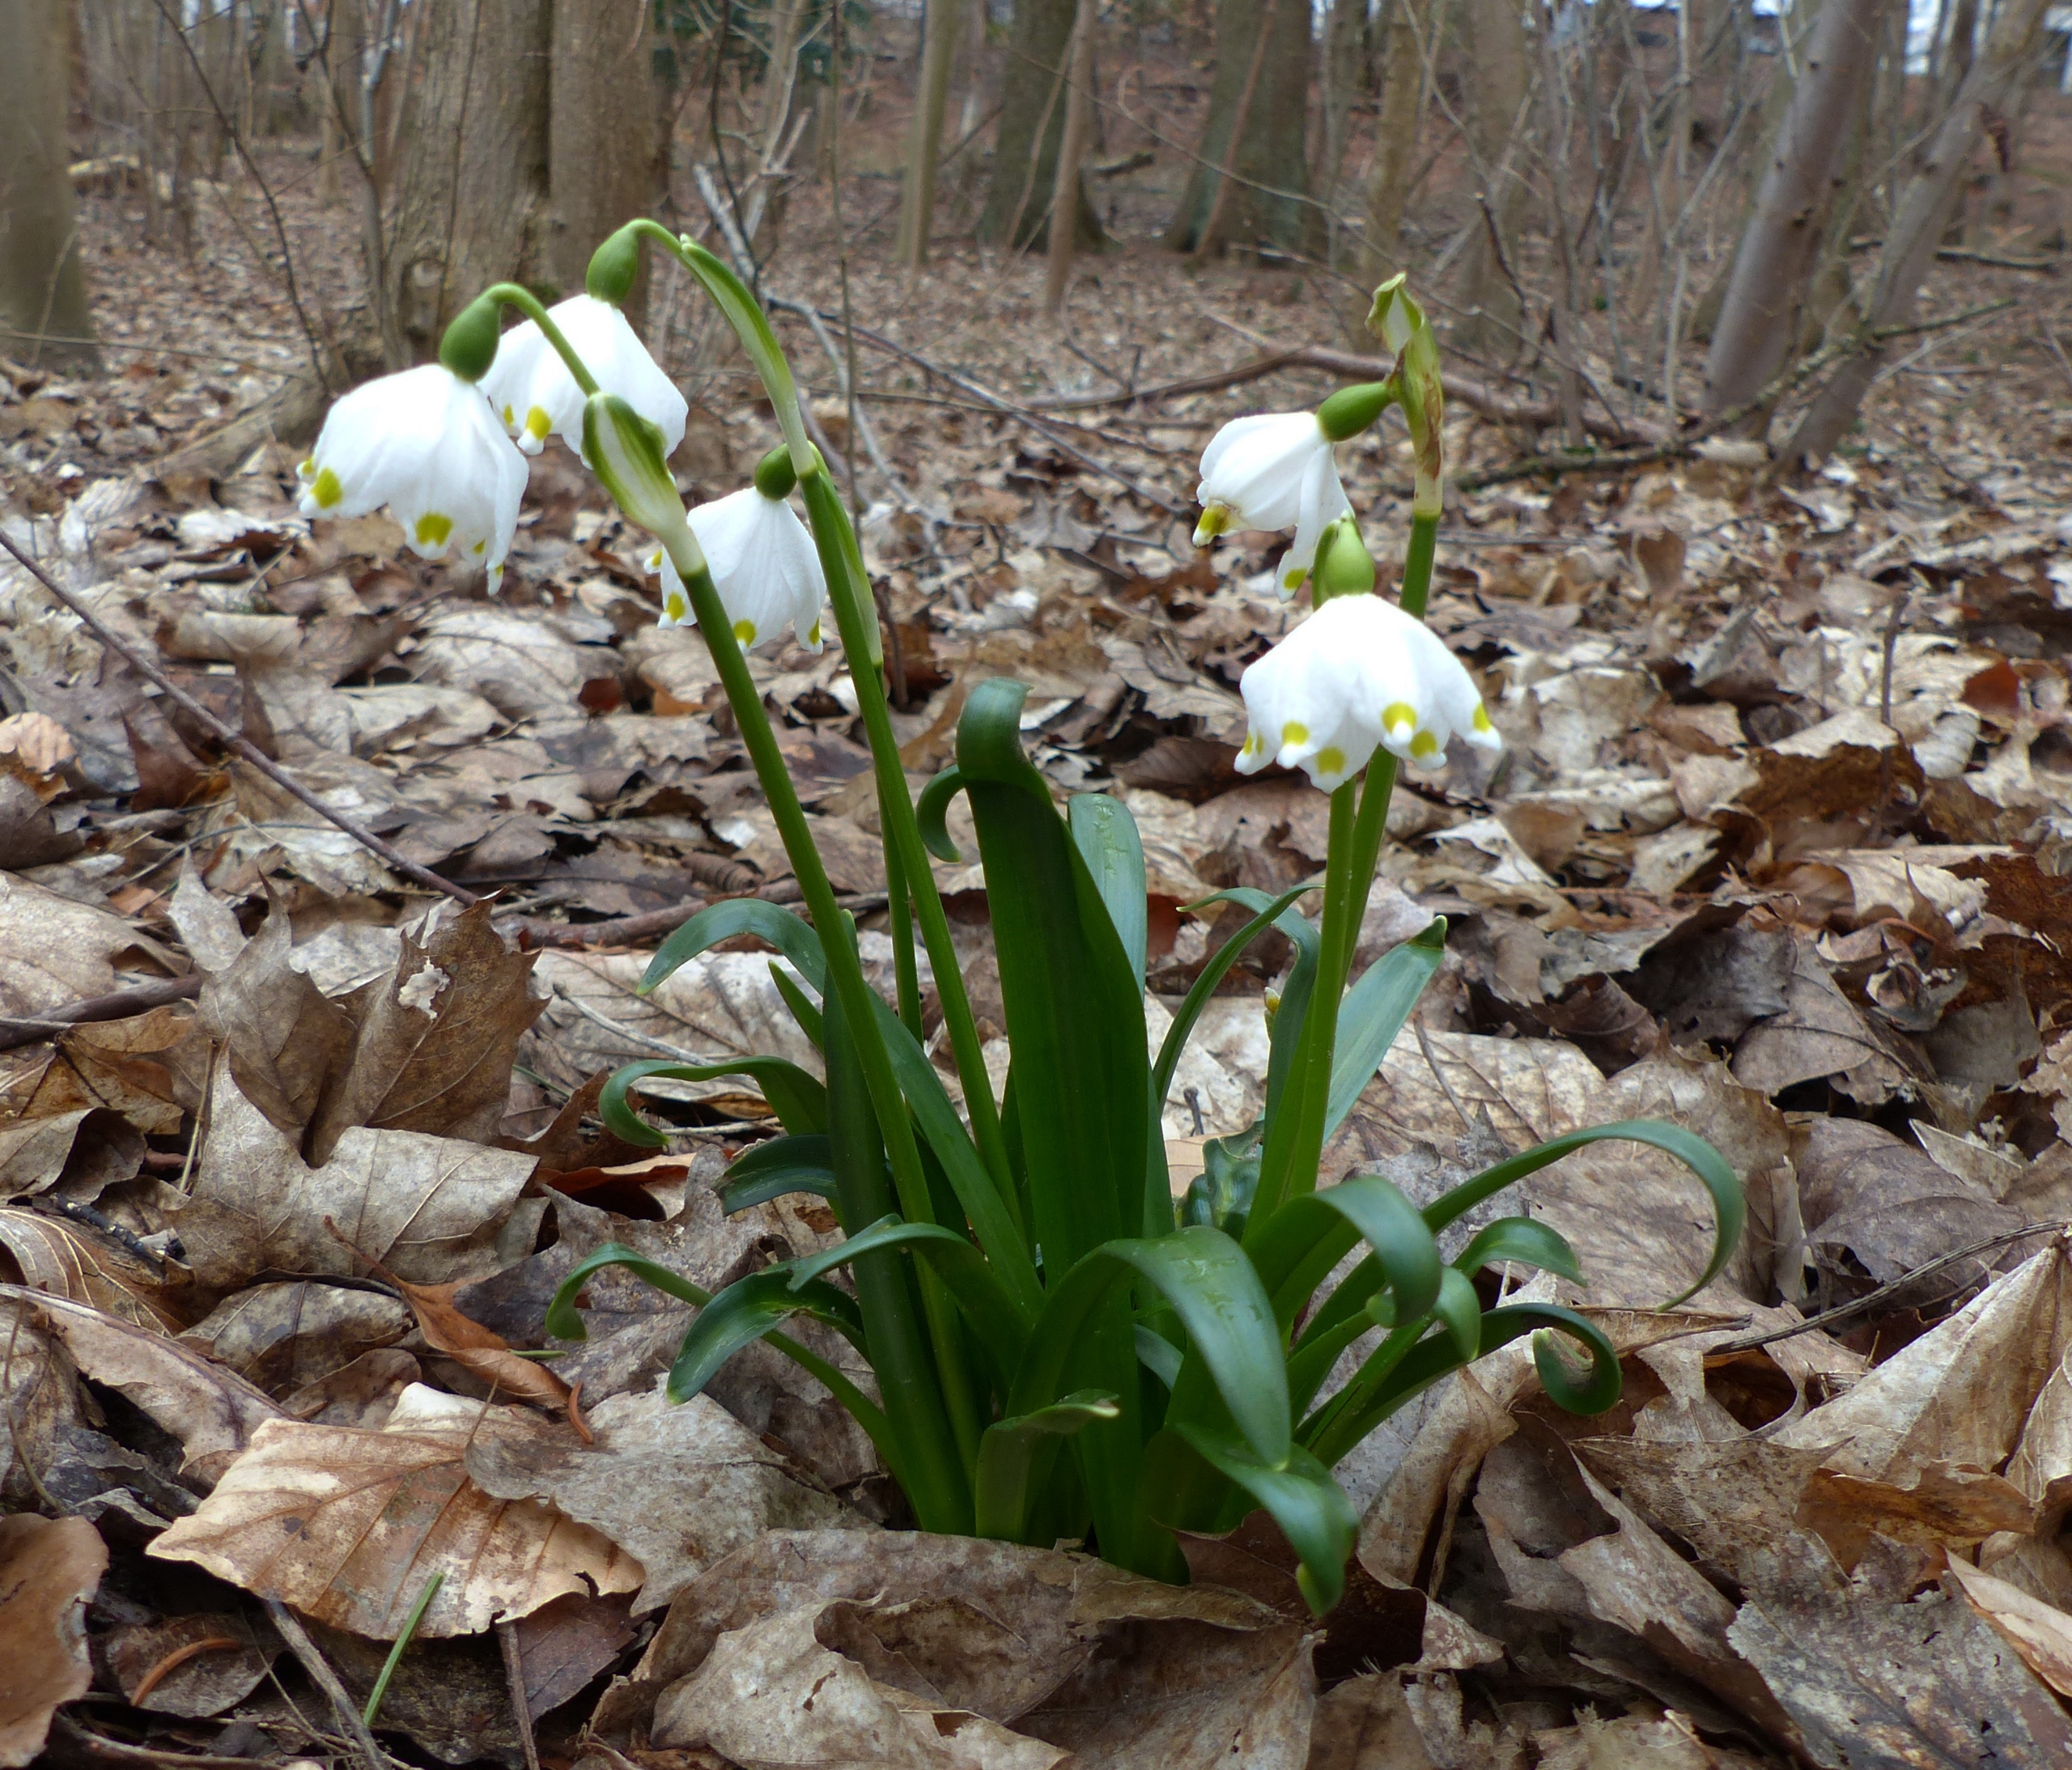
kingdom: Plantae
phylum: Tracheophyta
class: Liliopsida
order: Asparagales
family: Amaryllidaceae
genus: Leucojum
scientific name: Leucojum vernum
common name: Dorthealilje
